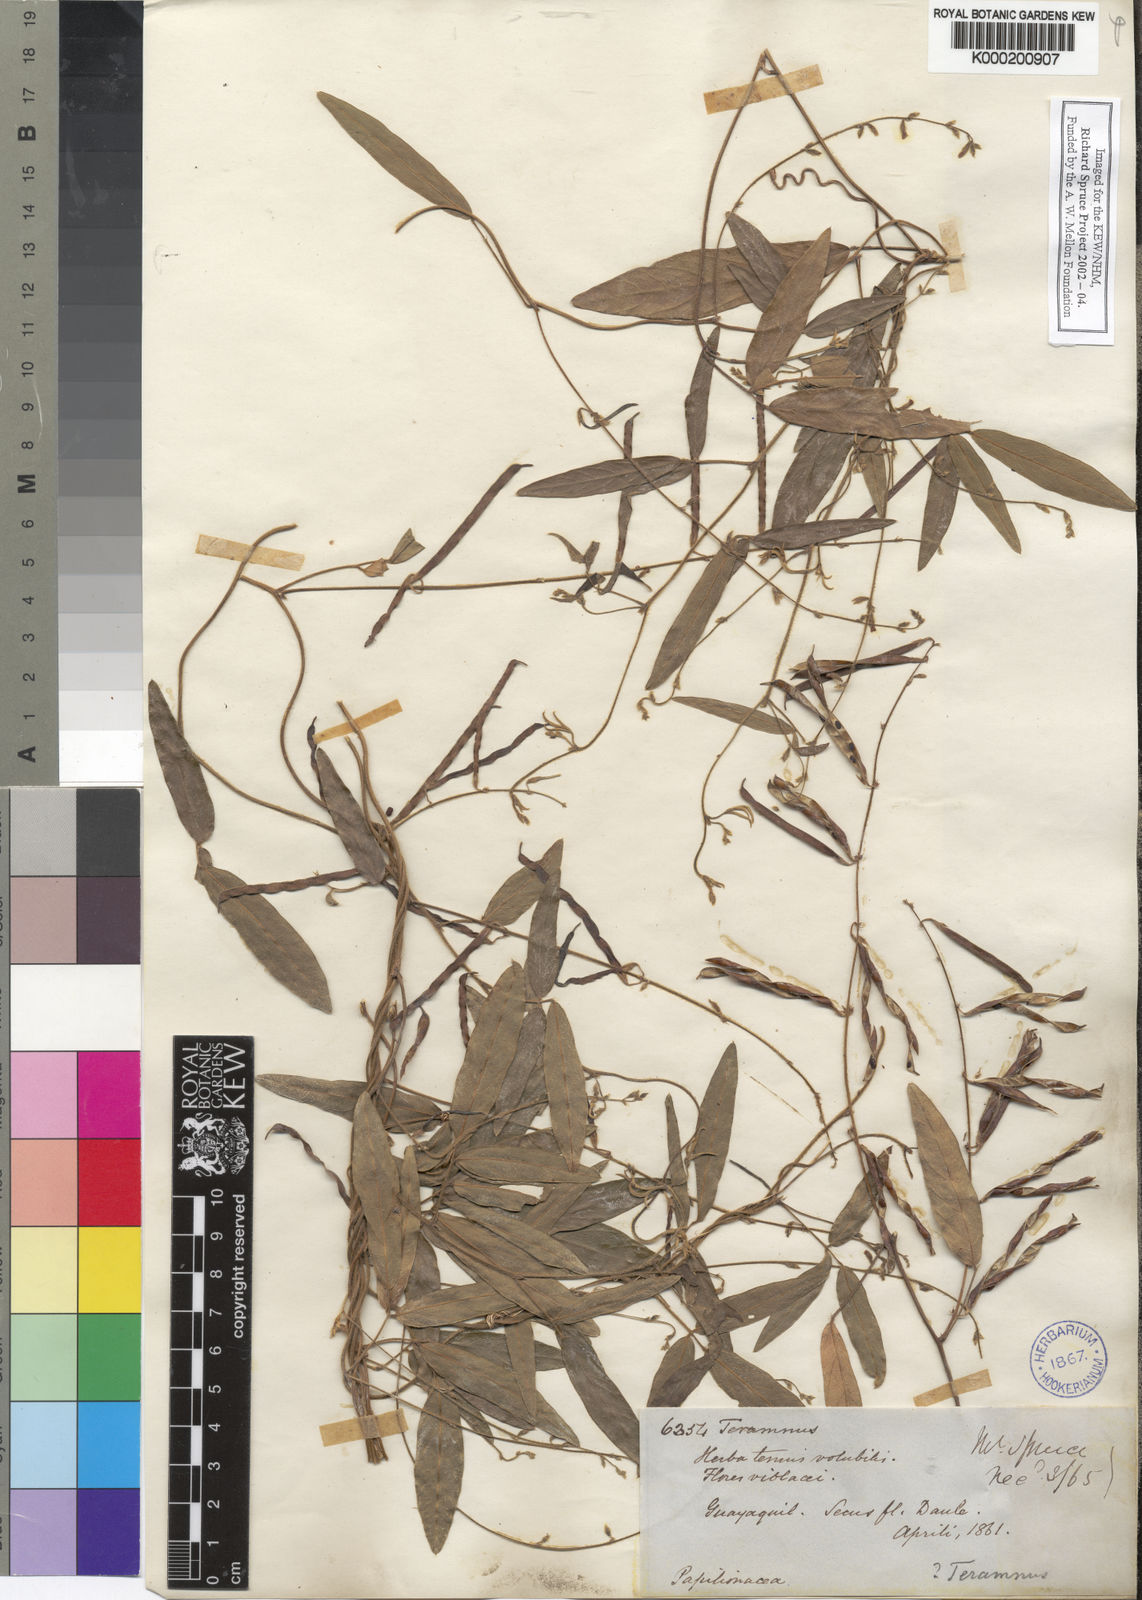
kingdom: Plantae
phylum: Tracheophyta
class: Magnoliopsida
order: Fabales
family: Fabaceae
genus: Teramnus
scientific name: Teramnus volubilis
